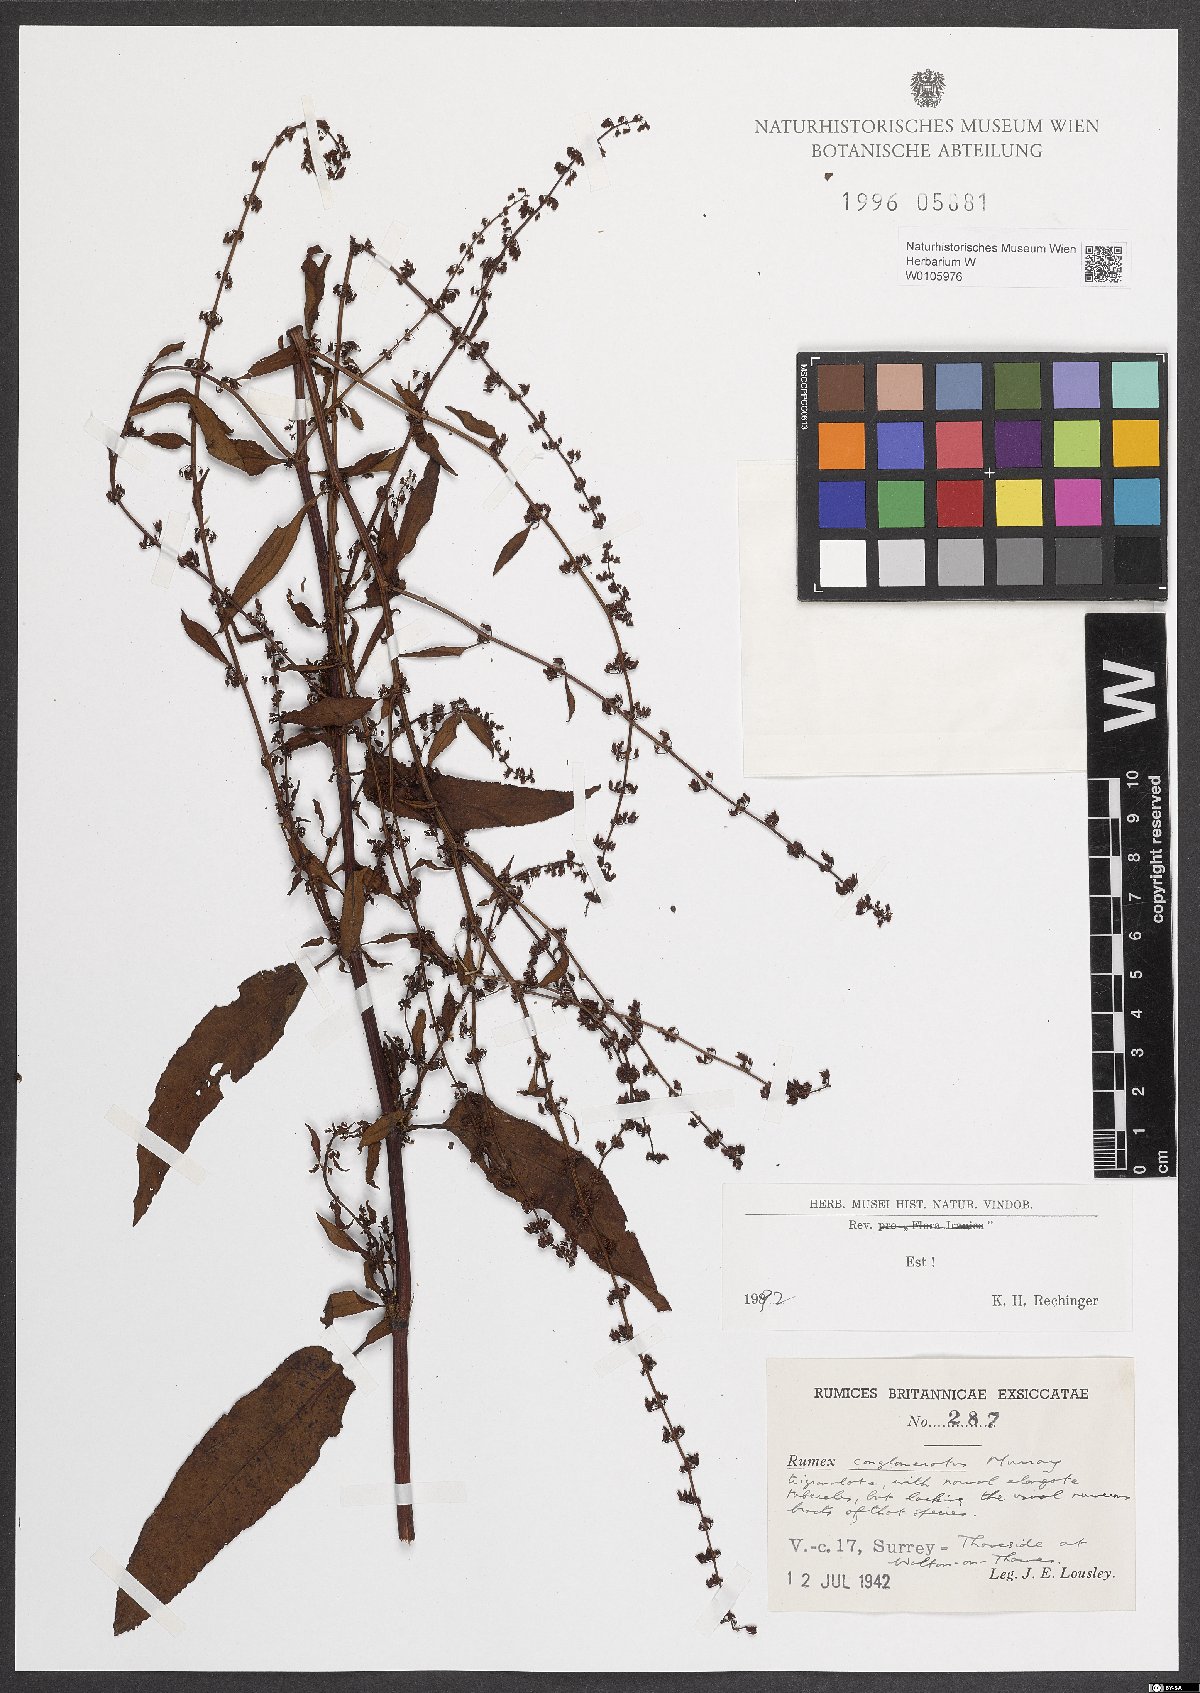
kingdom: Plantae
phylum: Tracheophyta
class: Magnoliopsida
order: Caryophyllales
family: Polygonaceae
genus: Rumex
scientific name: Rumex conglomeratus
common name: Clustered dock
